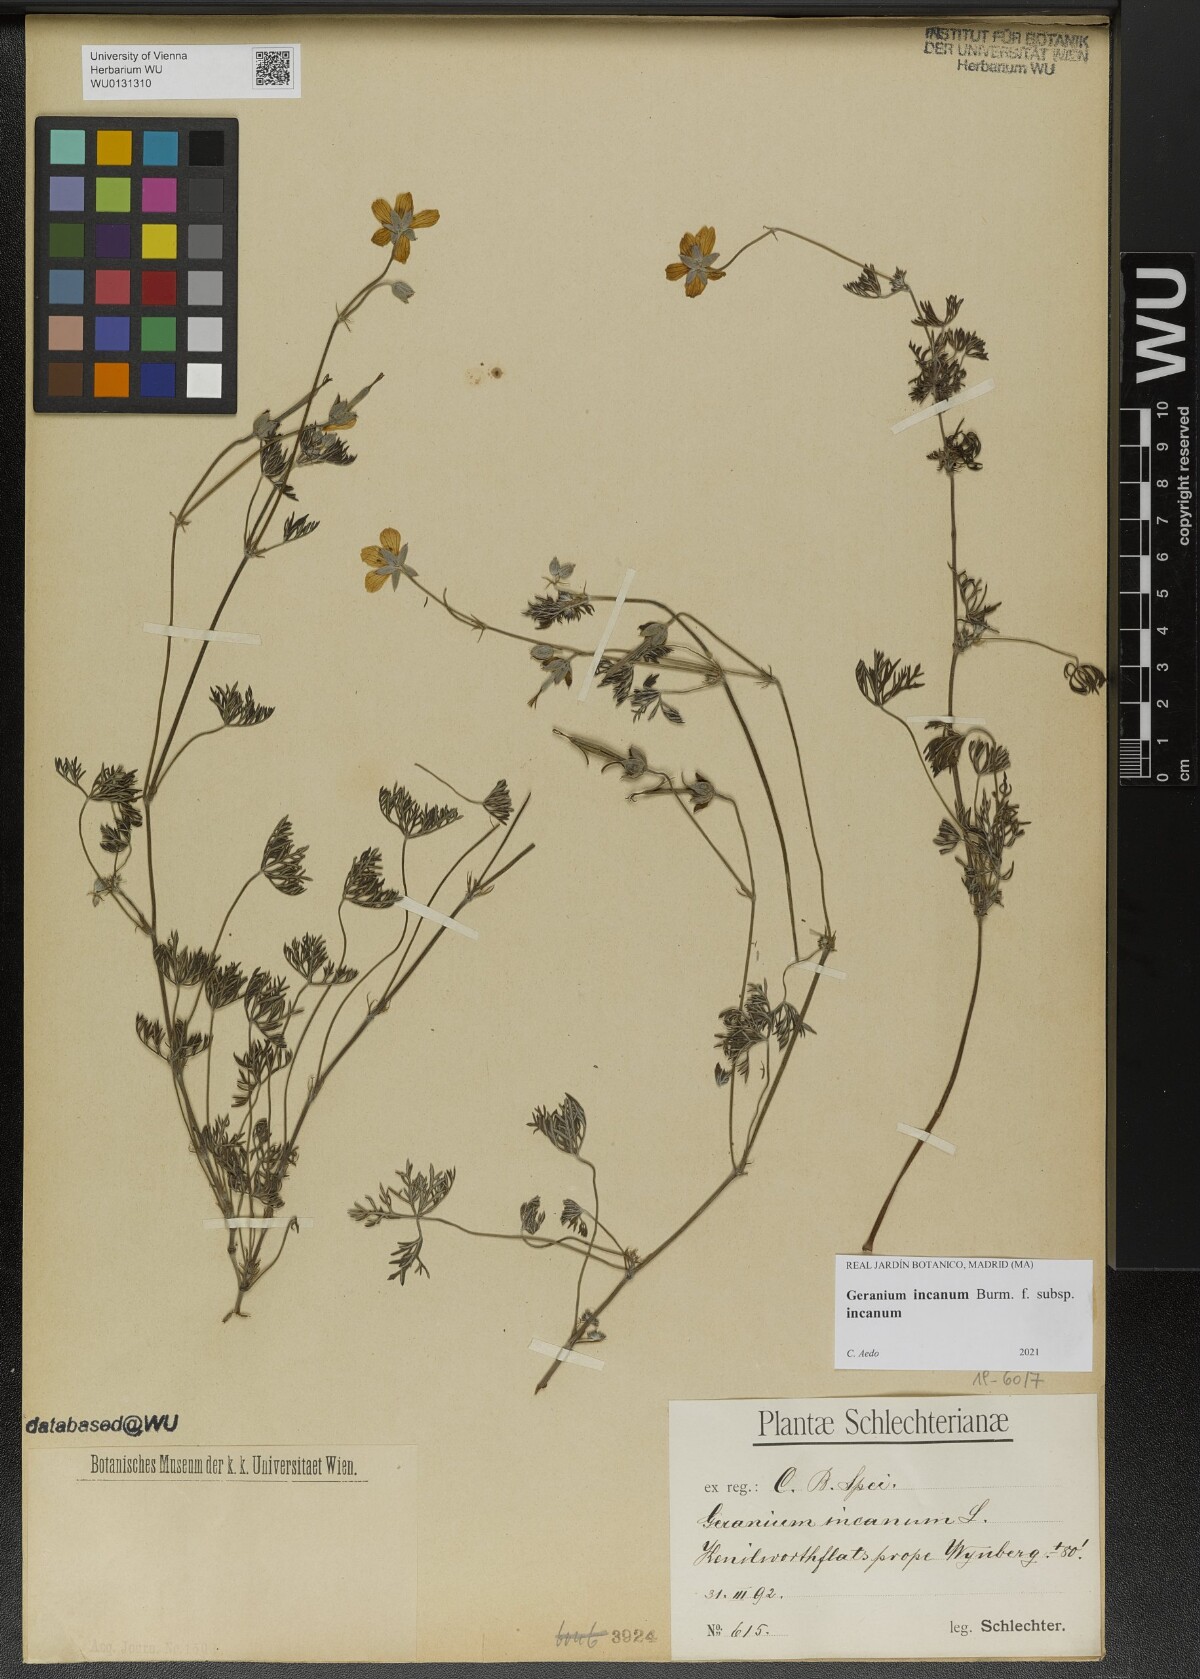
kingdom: Plantae
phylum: Tracheophyta
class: Magnoliopsida
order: Geraniales
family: Geraniaceae
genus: Geranium
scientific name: Geranium incanum
